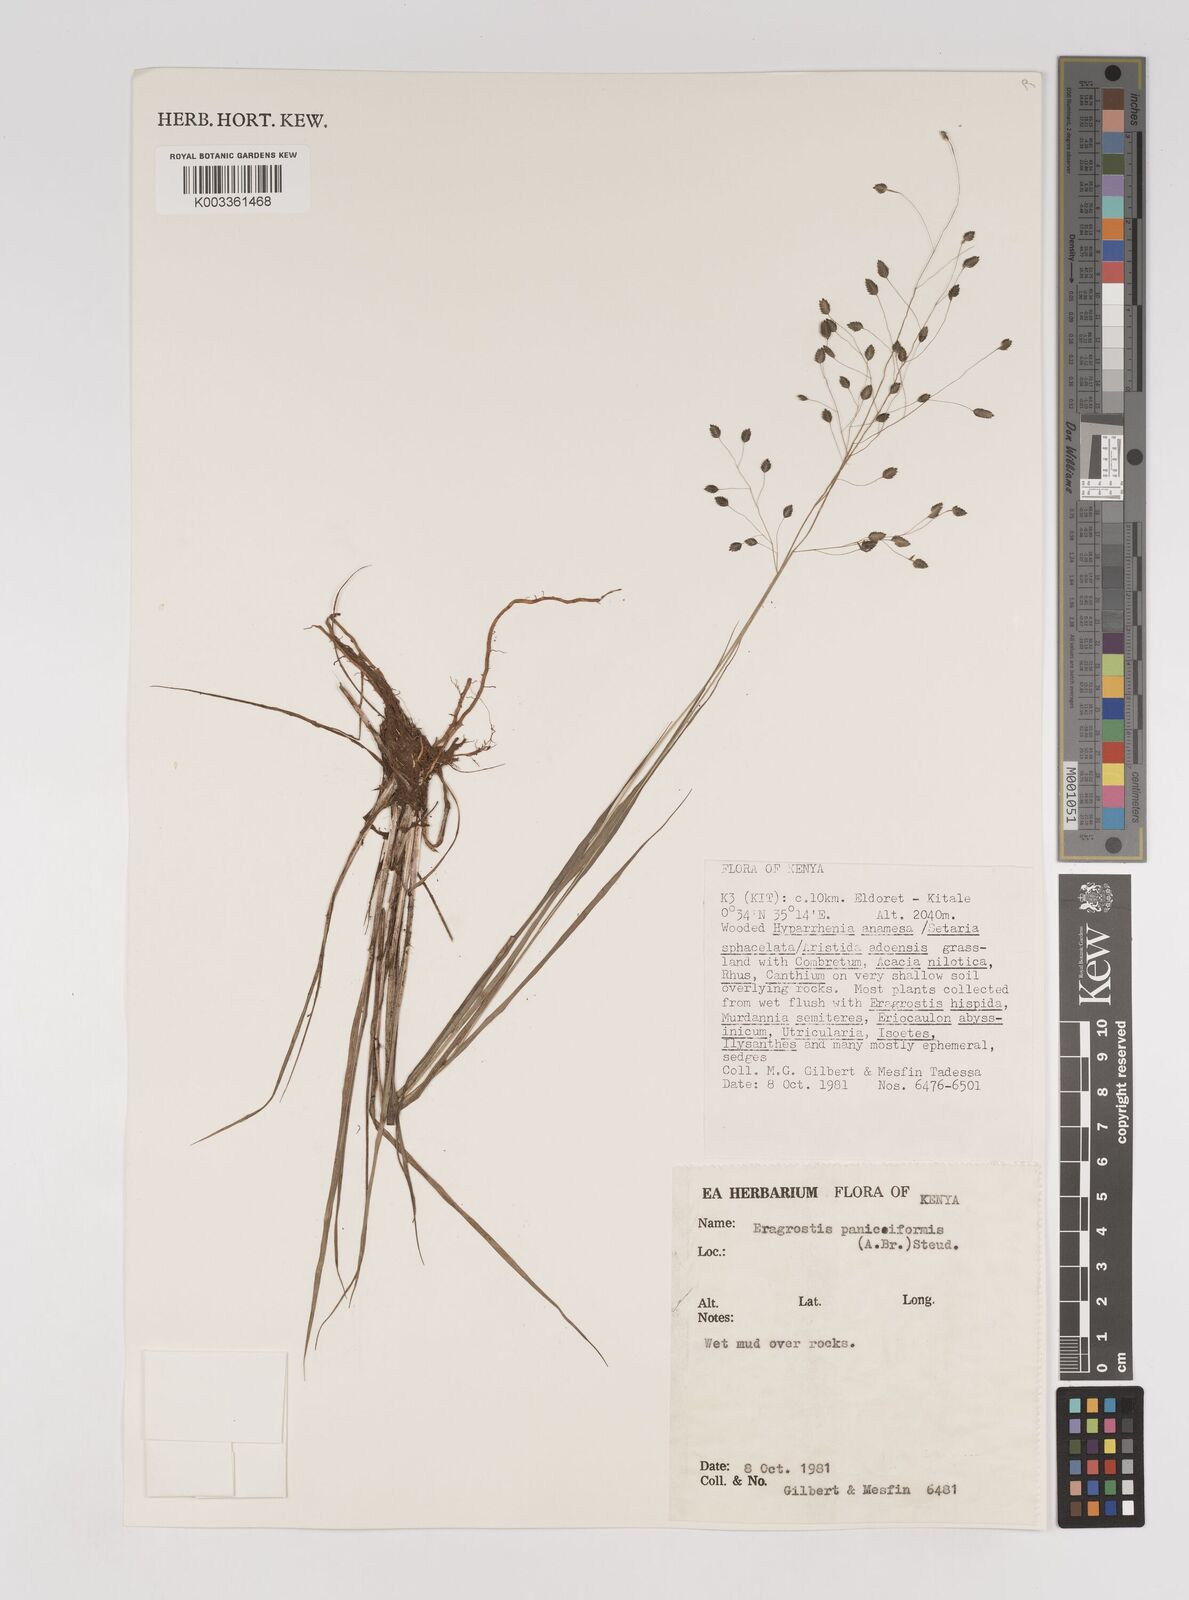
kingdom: Plantae
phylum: Tracheophyta
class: Liliopsida
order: Poales
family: Poaceae
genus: Eragrostis
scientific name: Eragrostis paniciformis
